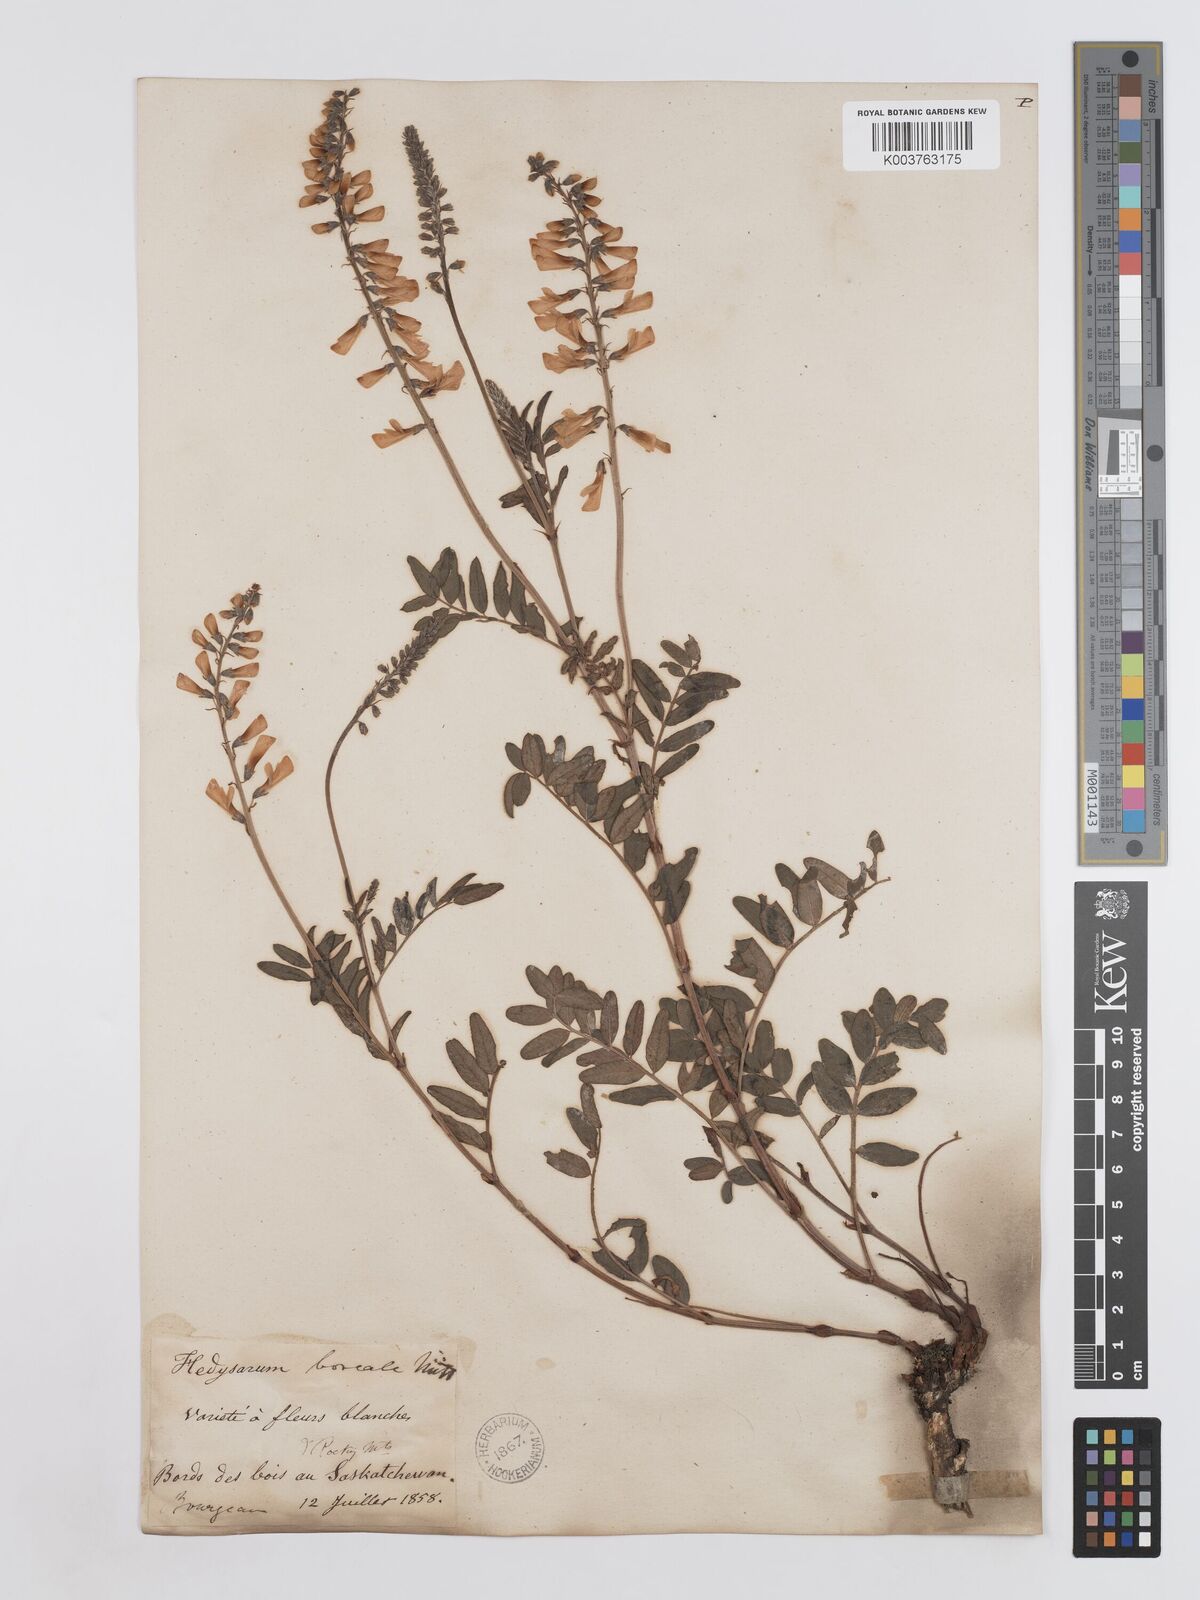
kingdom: Plantae
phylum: Tracheophyta
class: Magnoliopsida
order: Fabales
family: Fabaceae
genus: Hedysarum
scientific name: Hedysarum boreale
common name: Northern sweet-vetch
